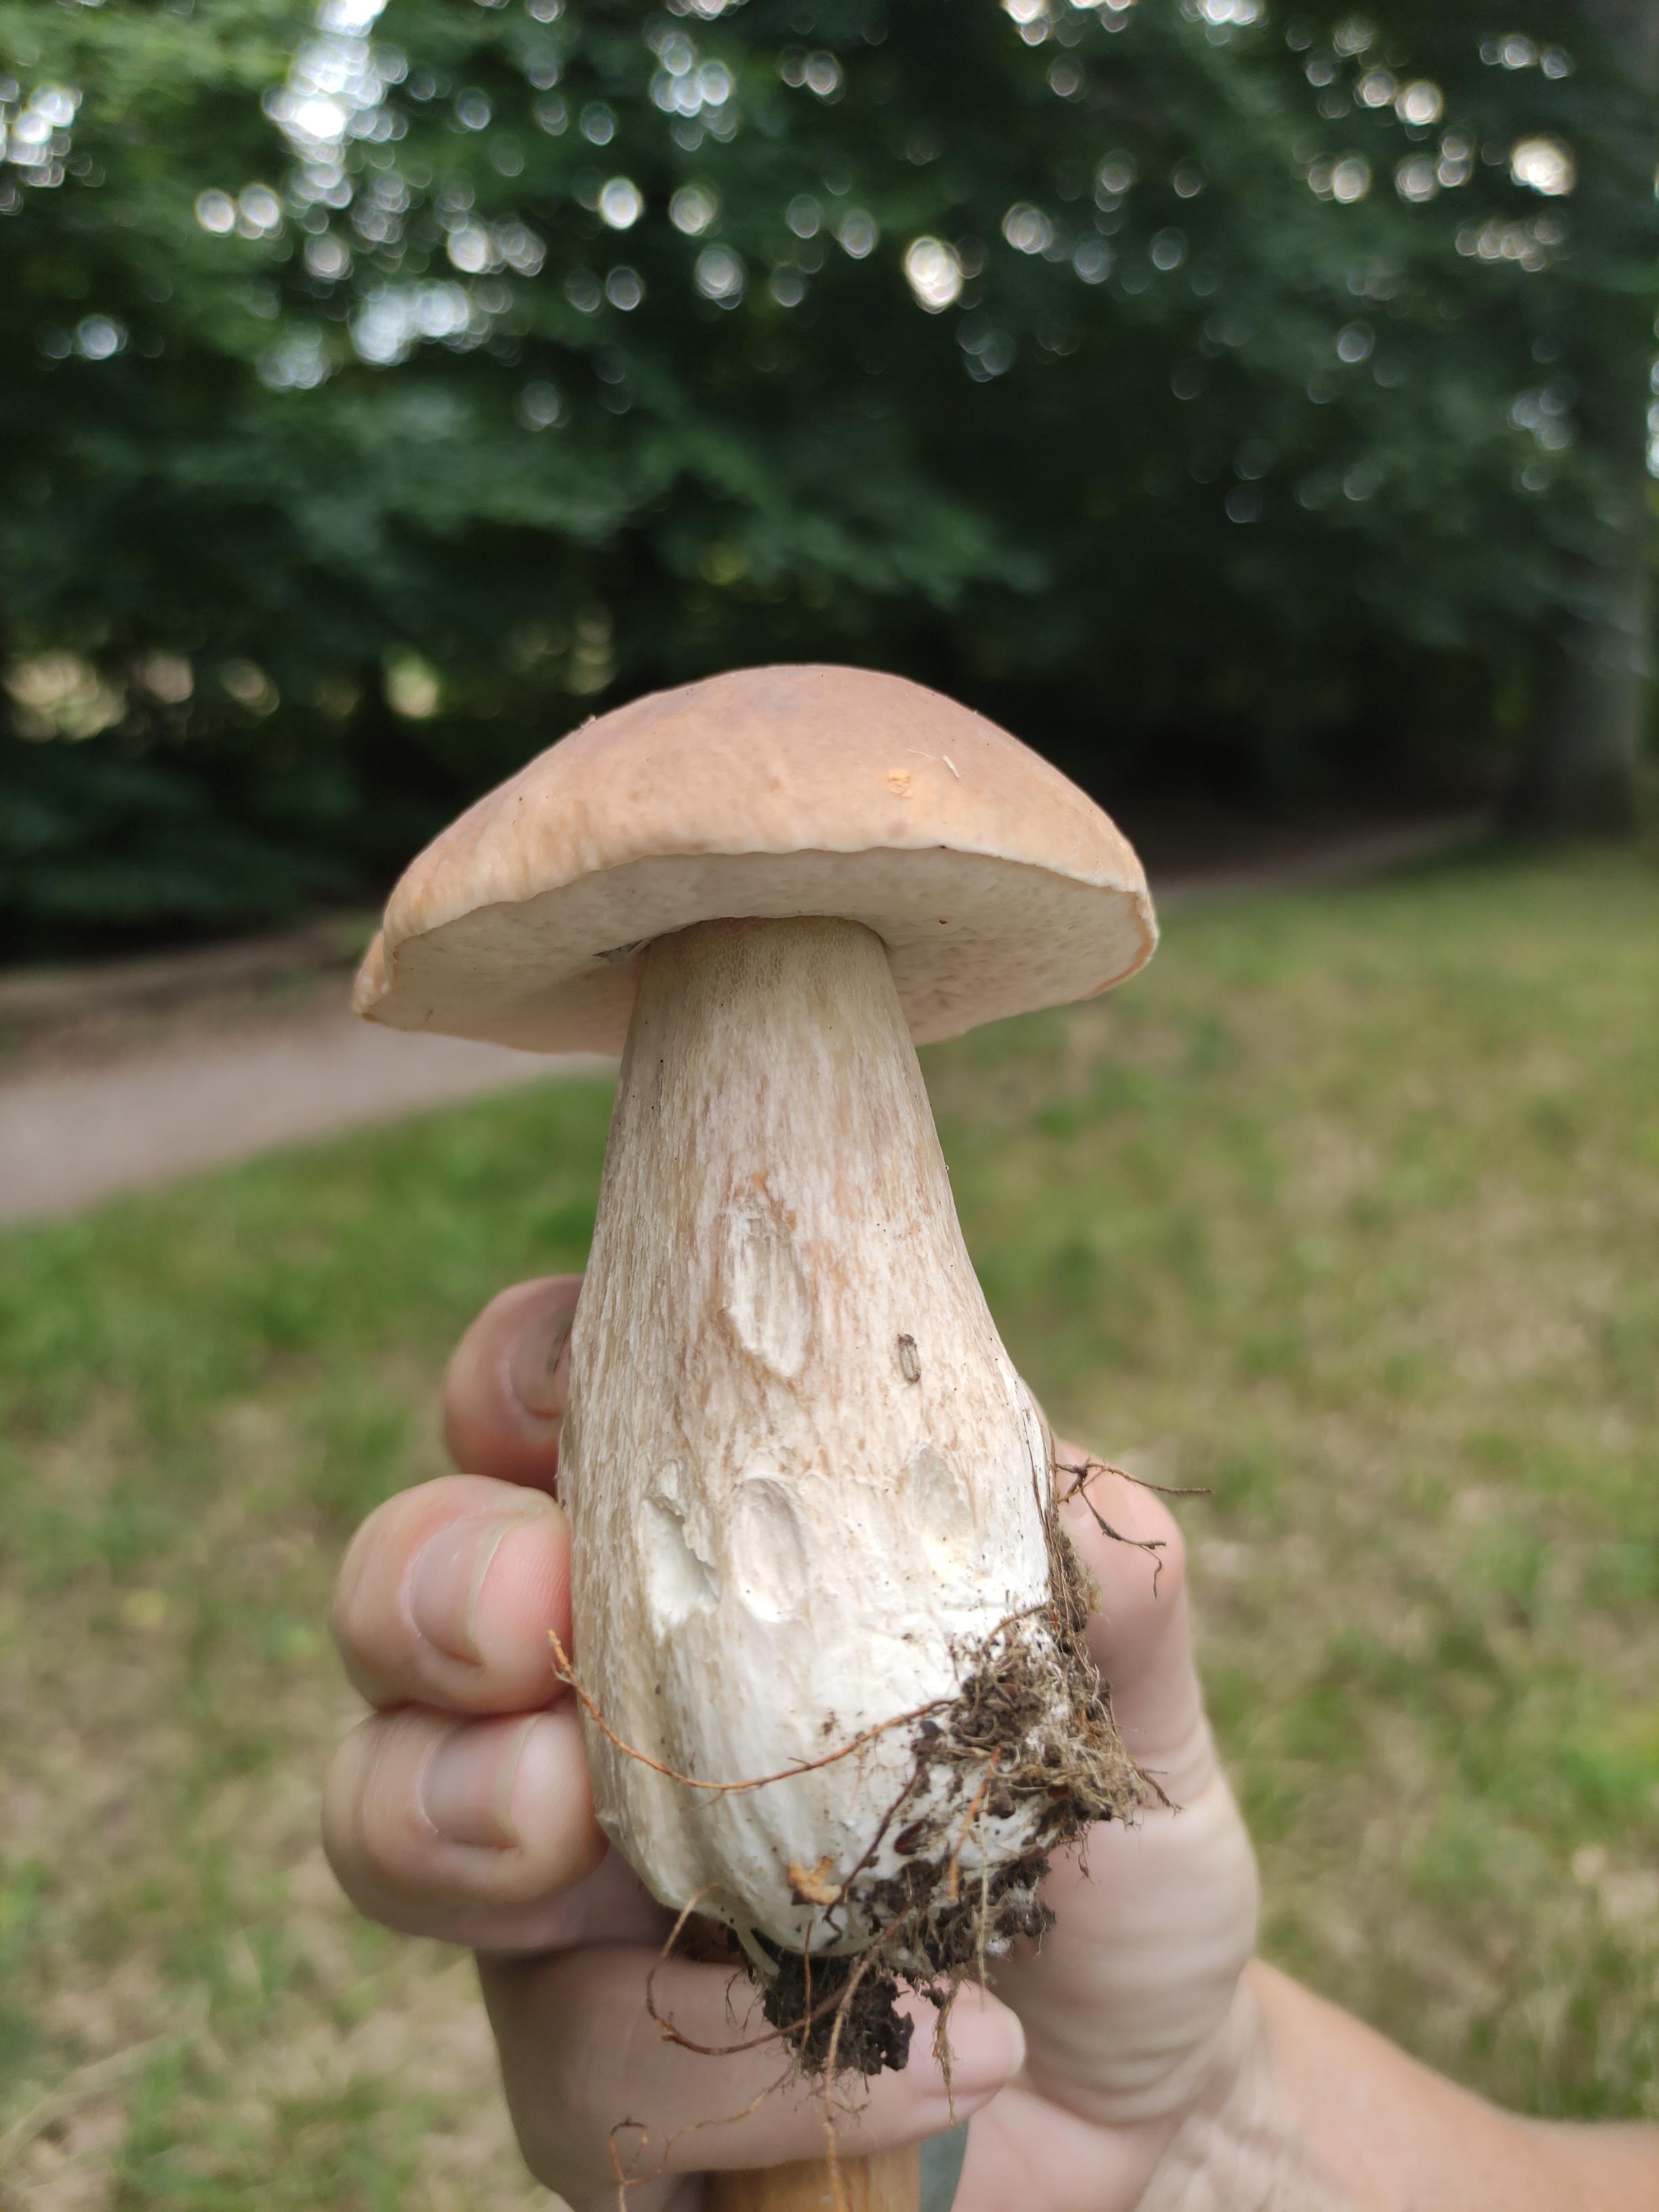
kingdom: Fungi
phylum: Basidiomycota
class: Agaricomycetes
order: Boletales
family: Boletaceae
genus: Boletus
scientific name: Boletus edulis
